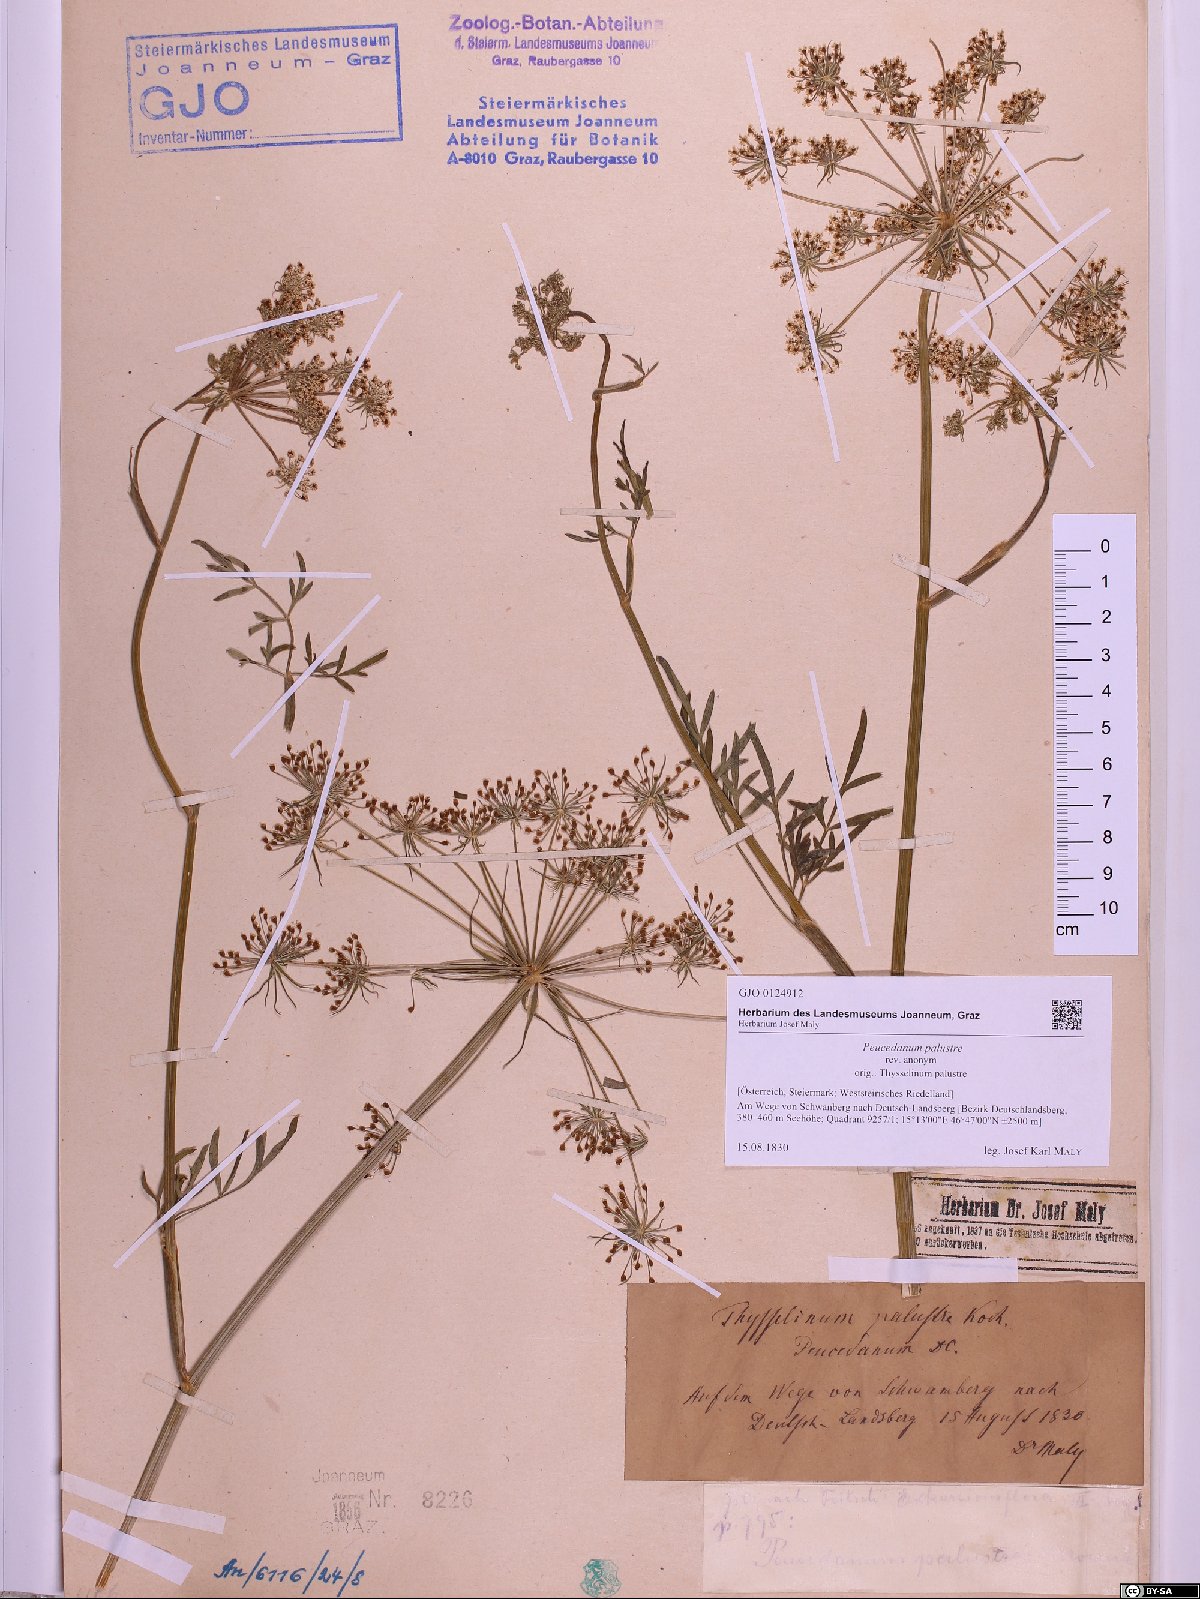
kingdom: Plantae
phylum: Tracheophyta
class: Magnoliopsida
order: Apiales
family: Apiaceae
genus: Thysselinum
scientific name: Thysselinum palustre
